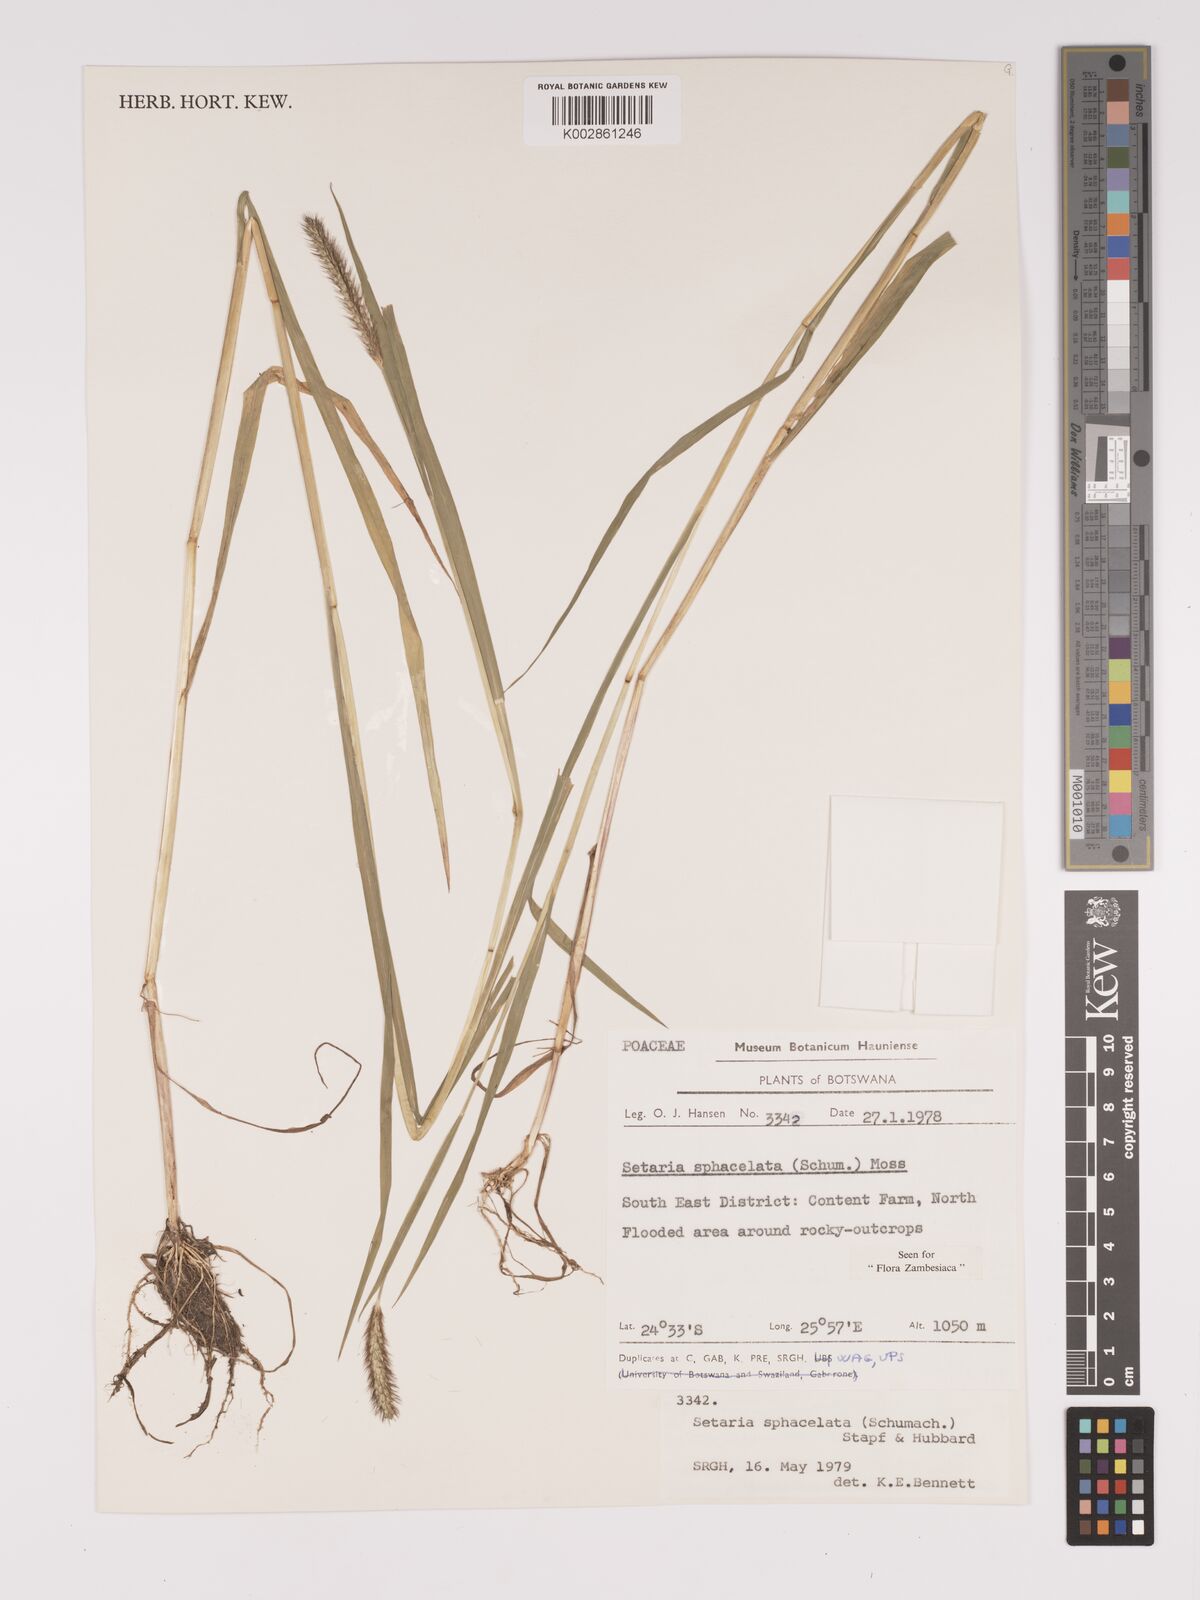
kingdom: Plantae
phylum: Tracheophyta
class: Liliopsida
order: Poales
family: Poaceae
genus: Setaria
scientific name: Setaria sphacelata
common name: African bristlegrass
